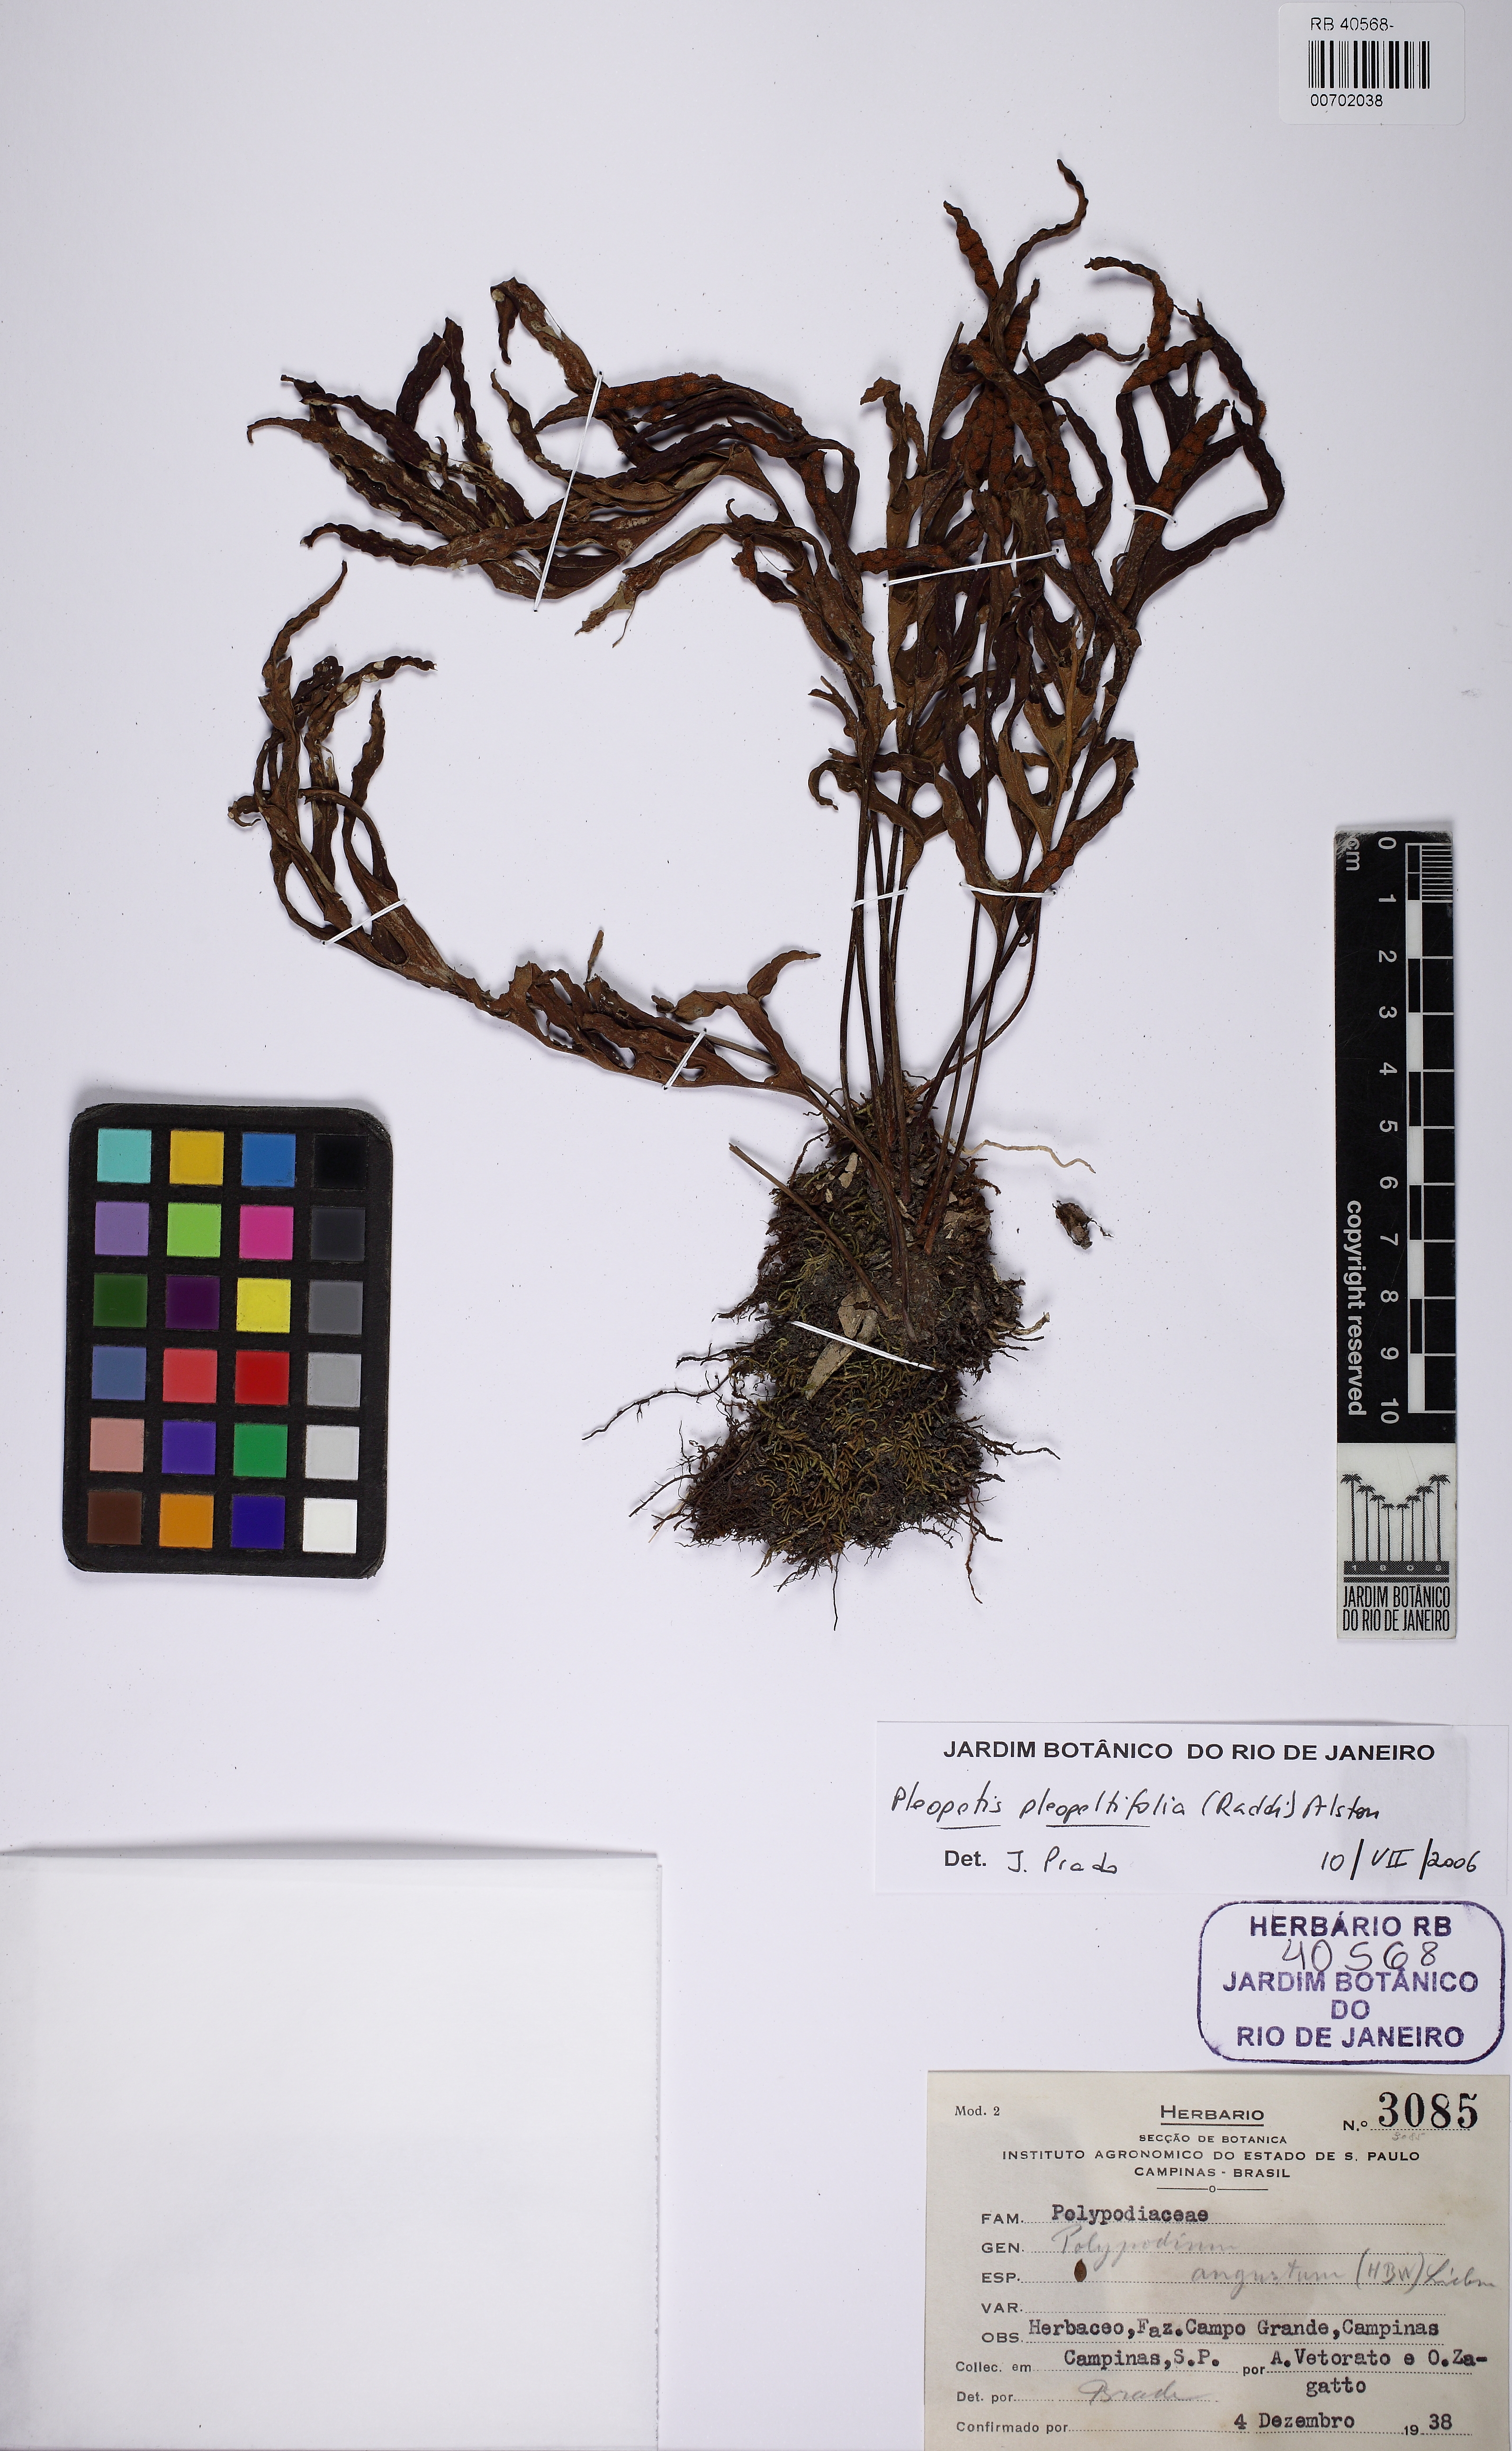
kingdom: Plantae
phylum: Tracheophyta
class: Polypodiopsida
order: Polypodiales
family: Polypodiaceae
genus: Pleopeltis
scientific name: Pleopeltis pleopeltifolia
